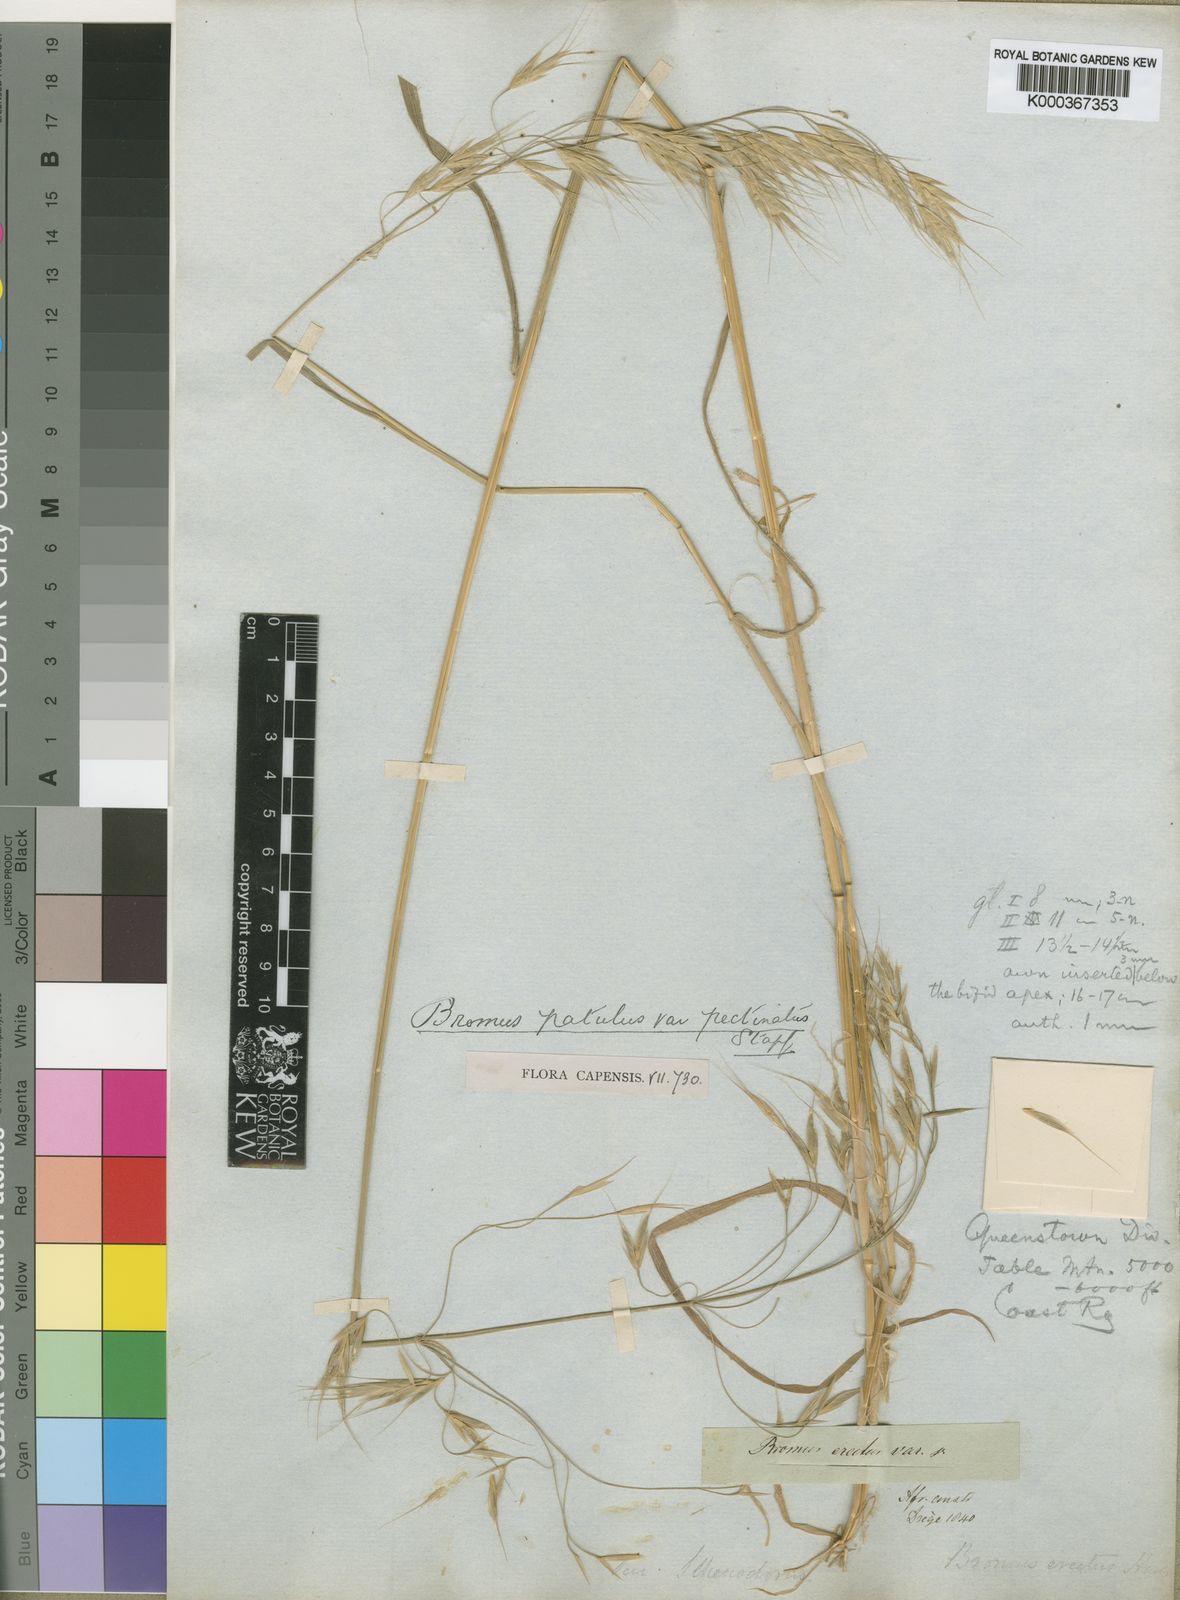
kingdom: Plantae
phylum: Tracheophyta
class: Liliopsida
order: Poales
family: Poaceae
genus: Bromus
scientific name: Bromus pectinatus
